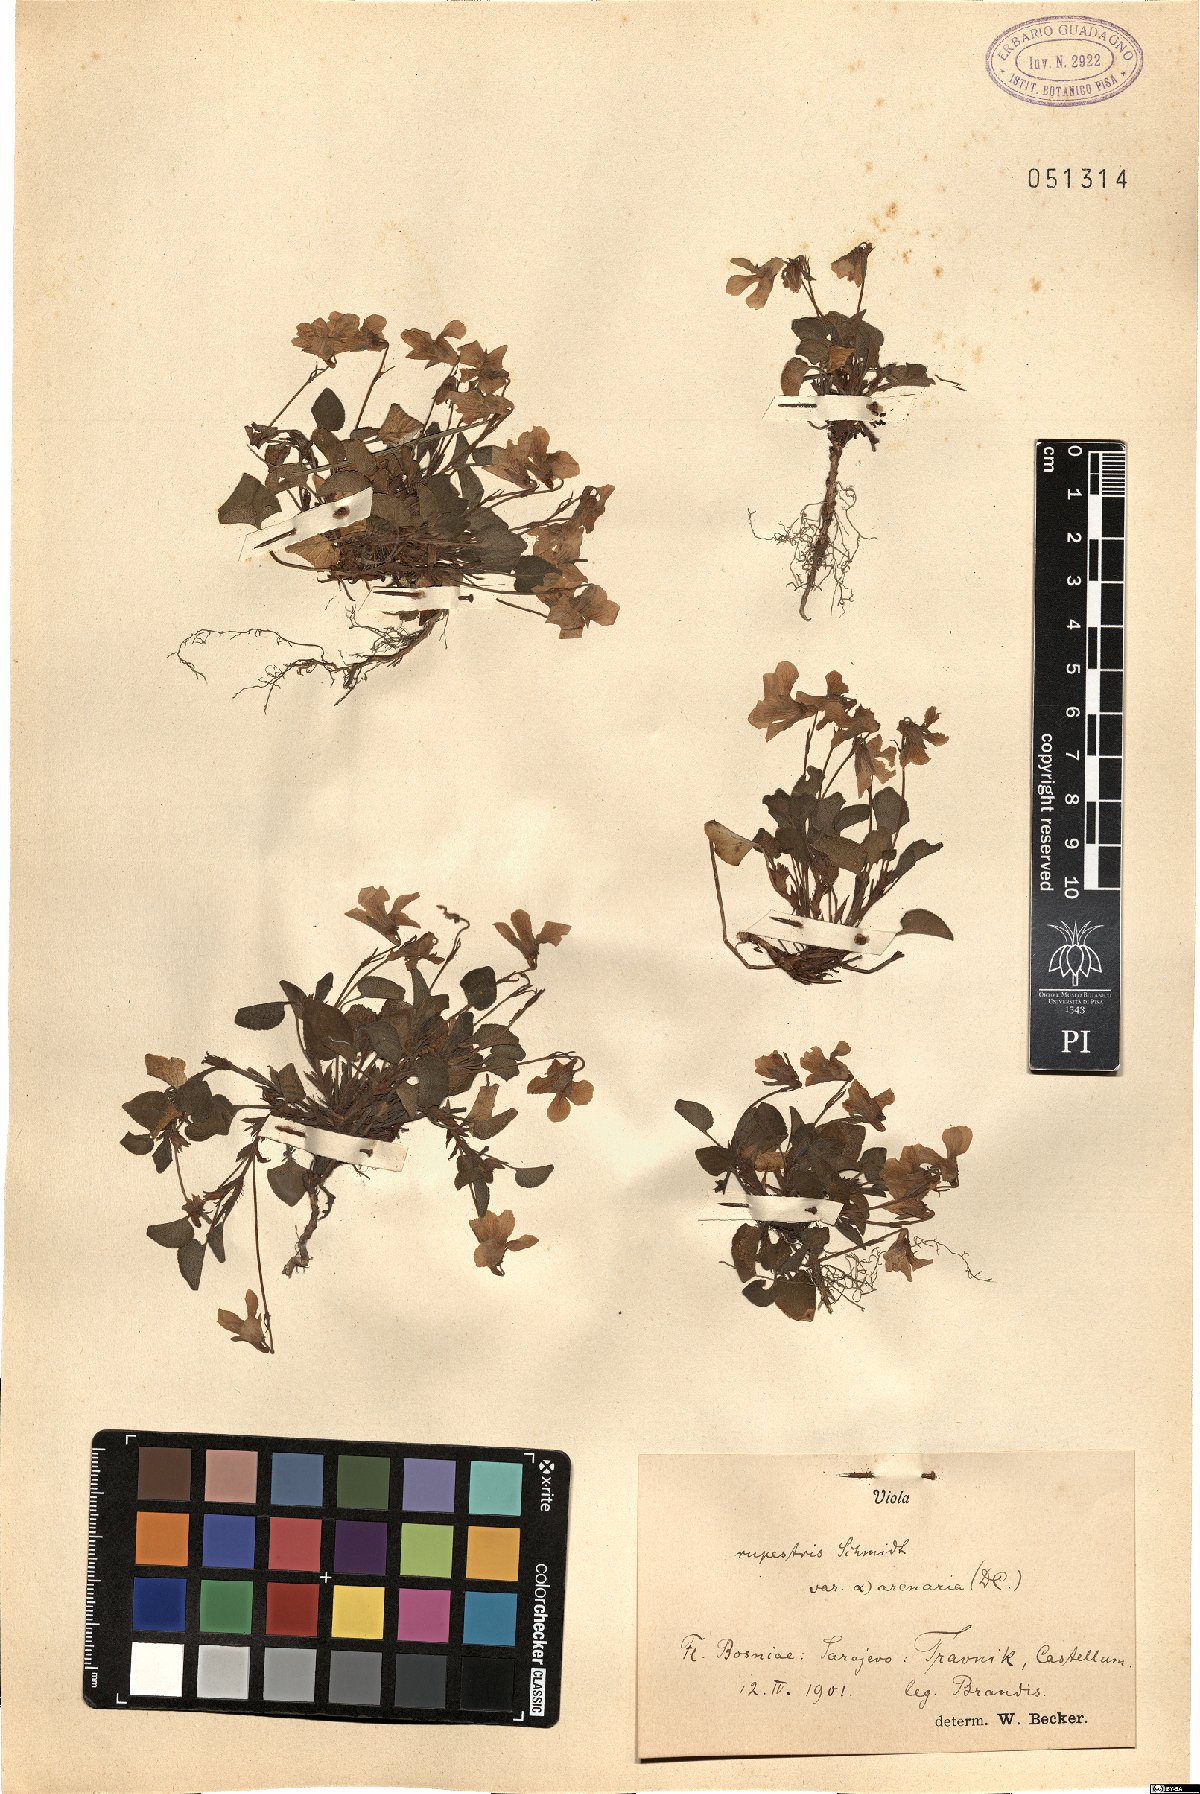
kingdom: Plantae
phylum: Tracheophyta
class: Magnoliopsida
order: Malpighiales
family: Violaceae
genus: Viola
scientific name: Viola rupestris
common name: Teesdale violet
